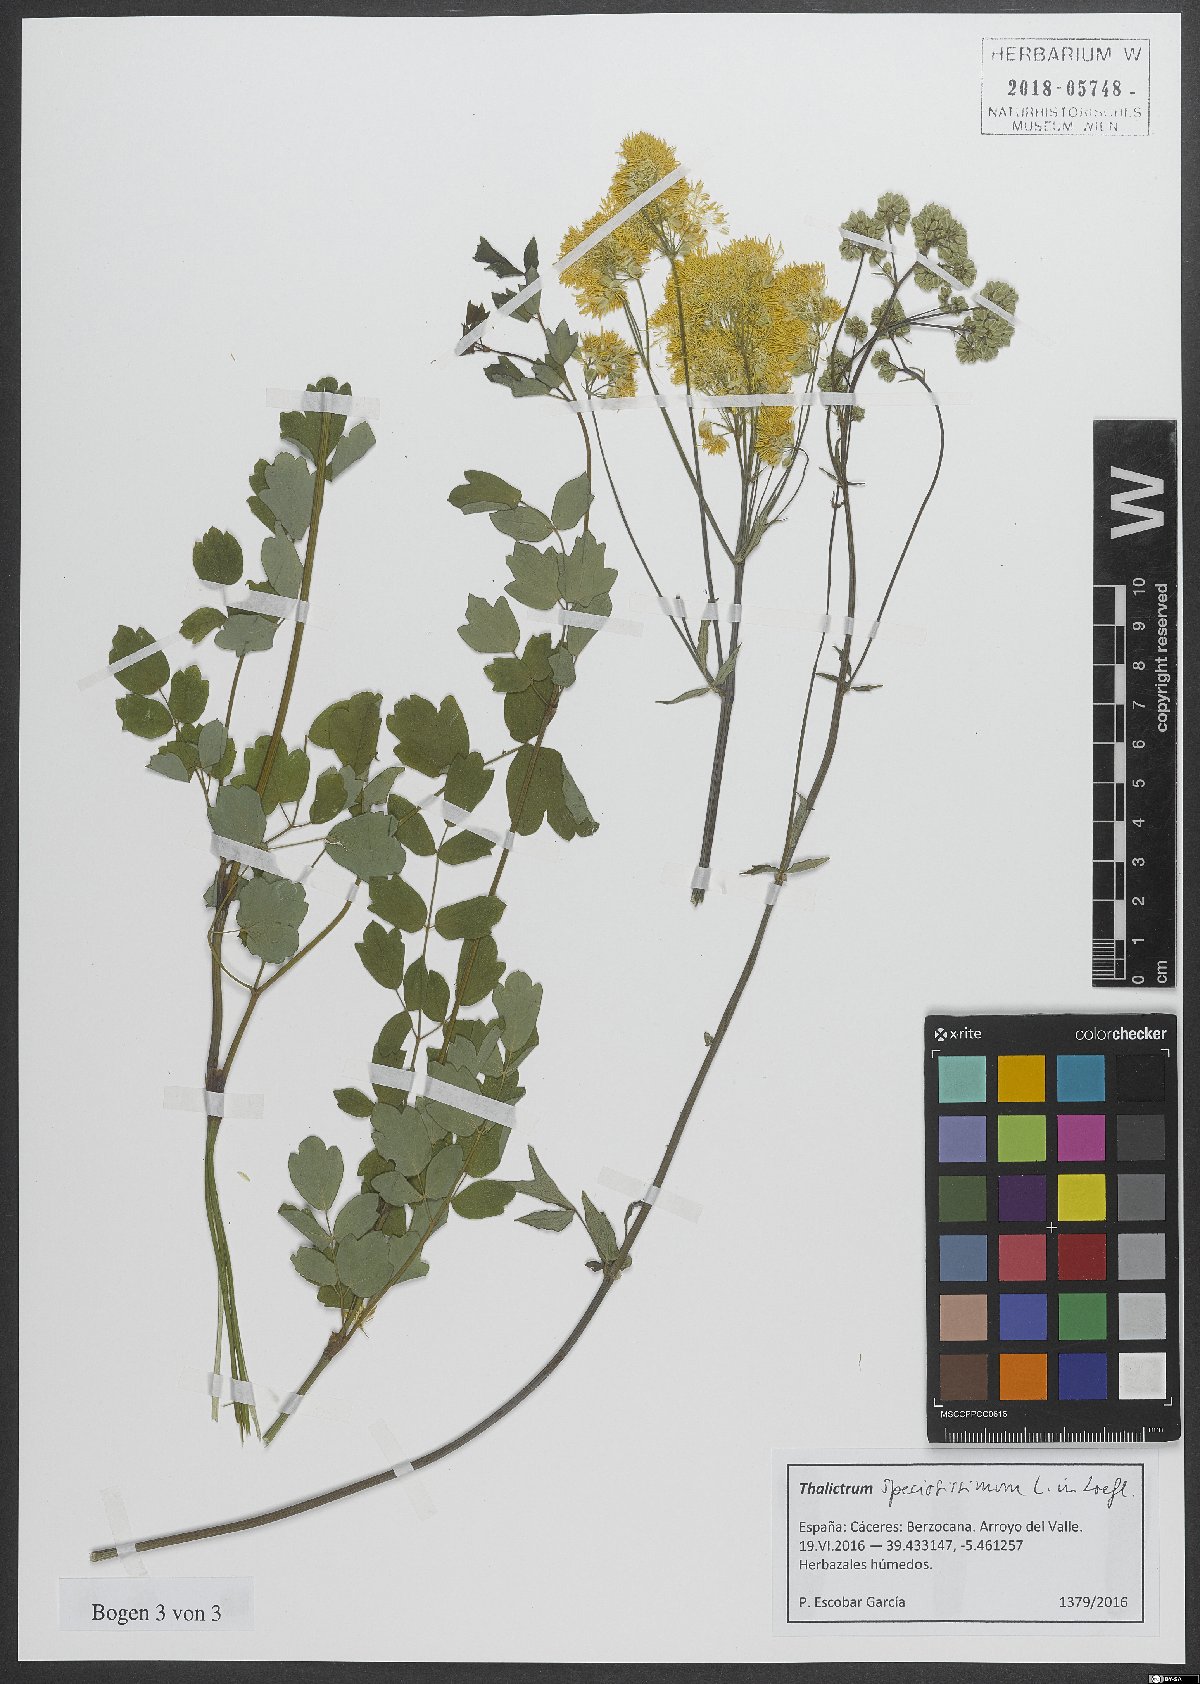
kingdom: Plantae
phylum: Tracheophyta
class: Magnoliopsida
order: Ranunculales
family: Ranunculaceae
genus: Thalictrum
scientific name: Thalictrum speciosissimum
